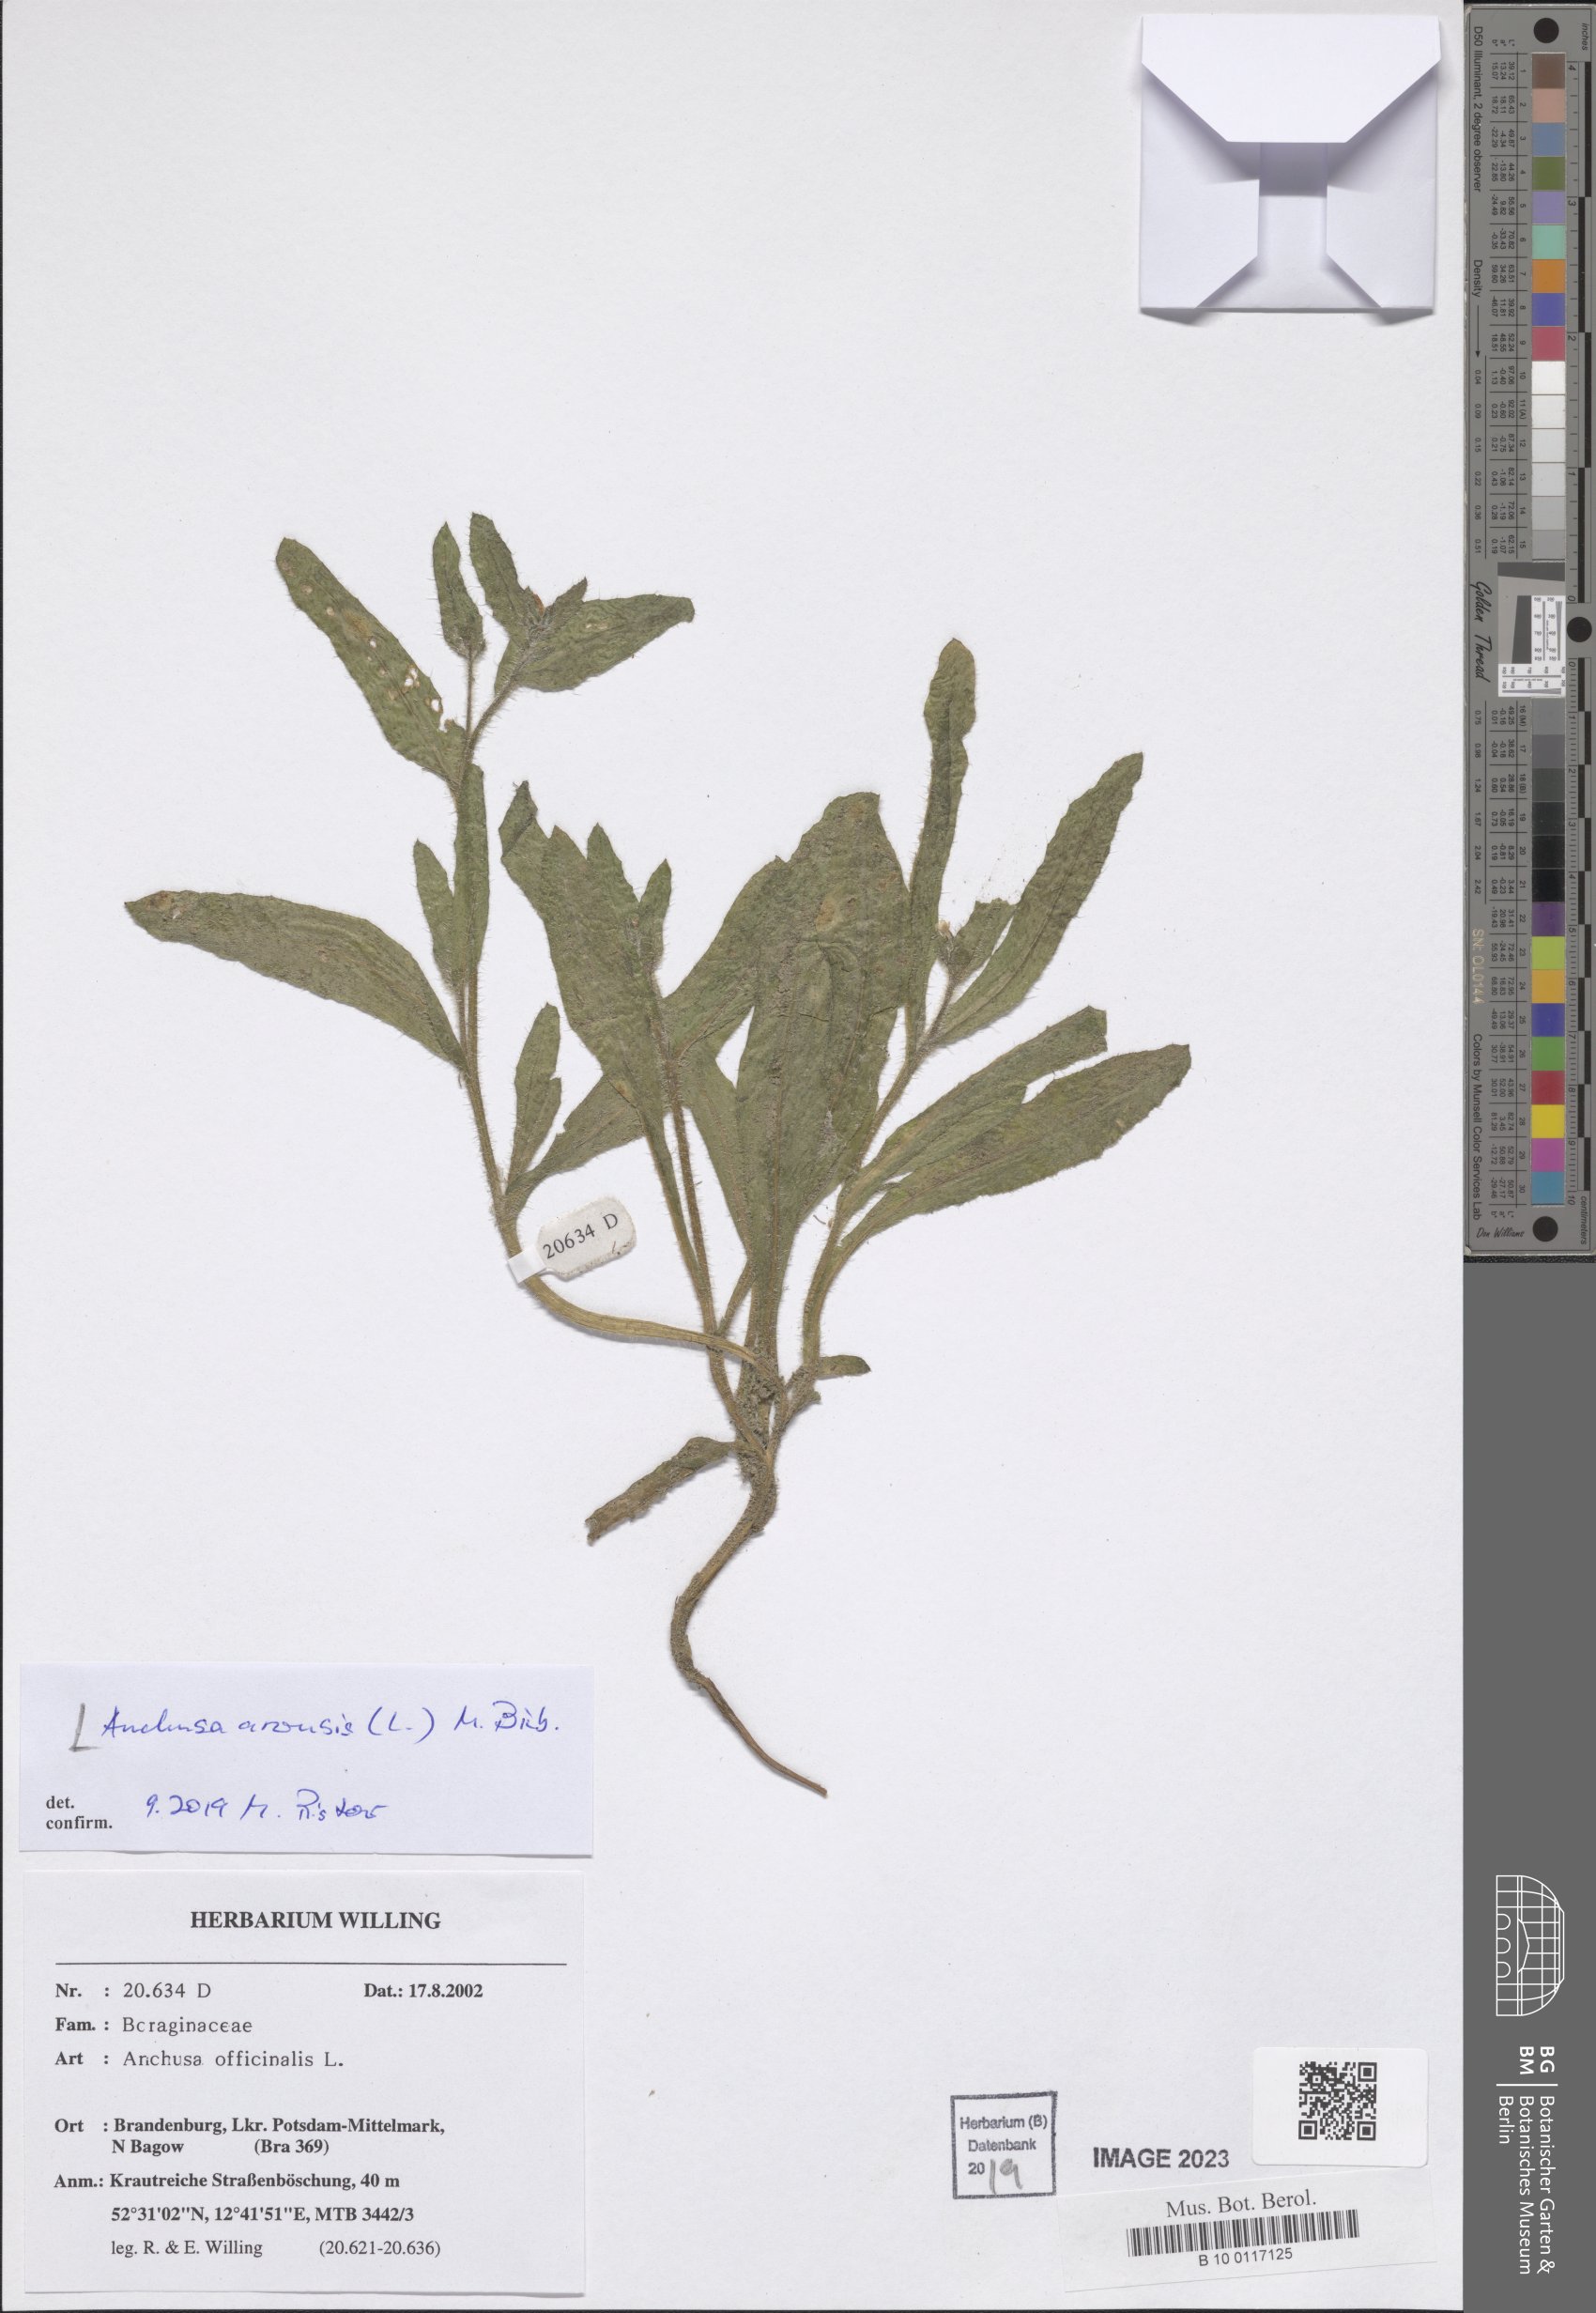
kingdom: Plantae
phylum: Tracheophyta
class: Magnoliopsida
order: Boraginales
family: Boraginaceae
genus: Lycopsis
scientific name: Lycopsis arvensis
